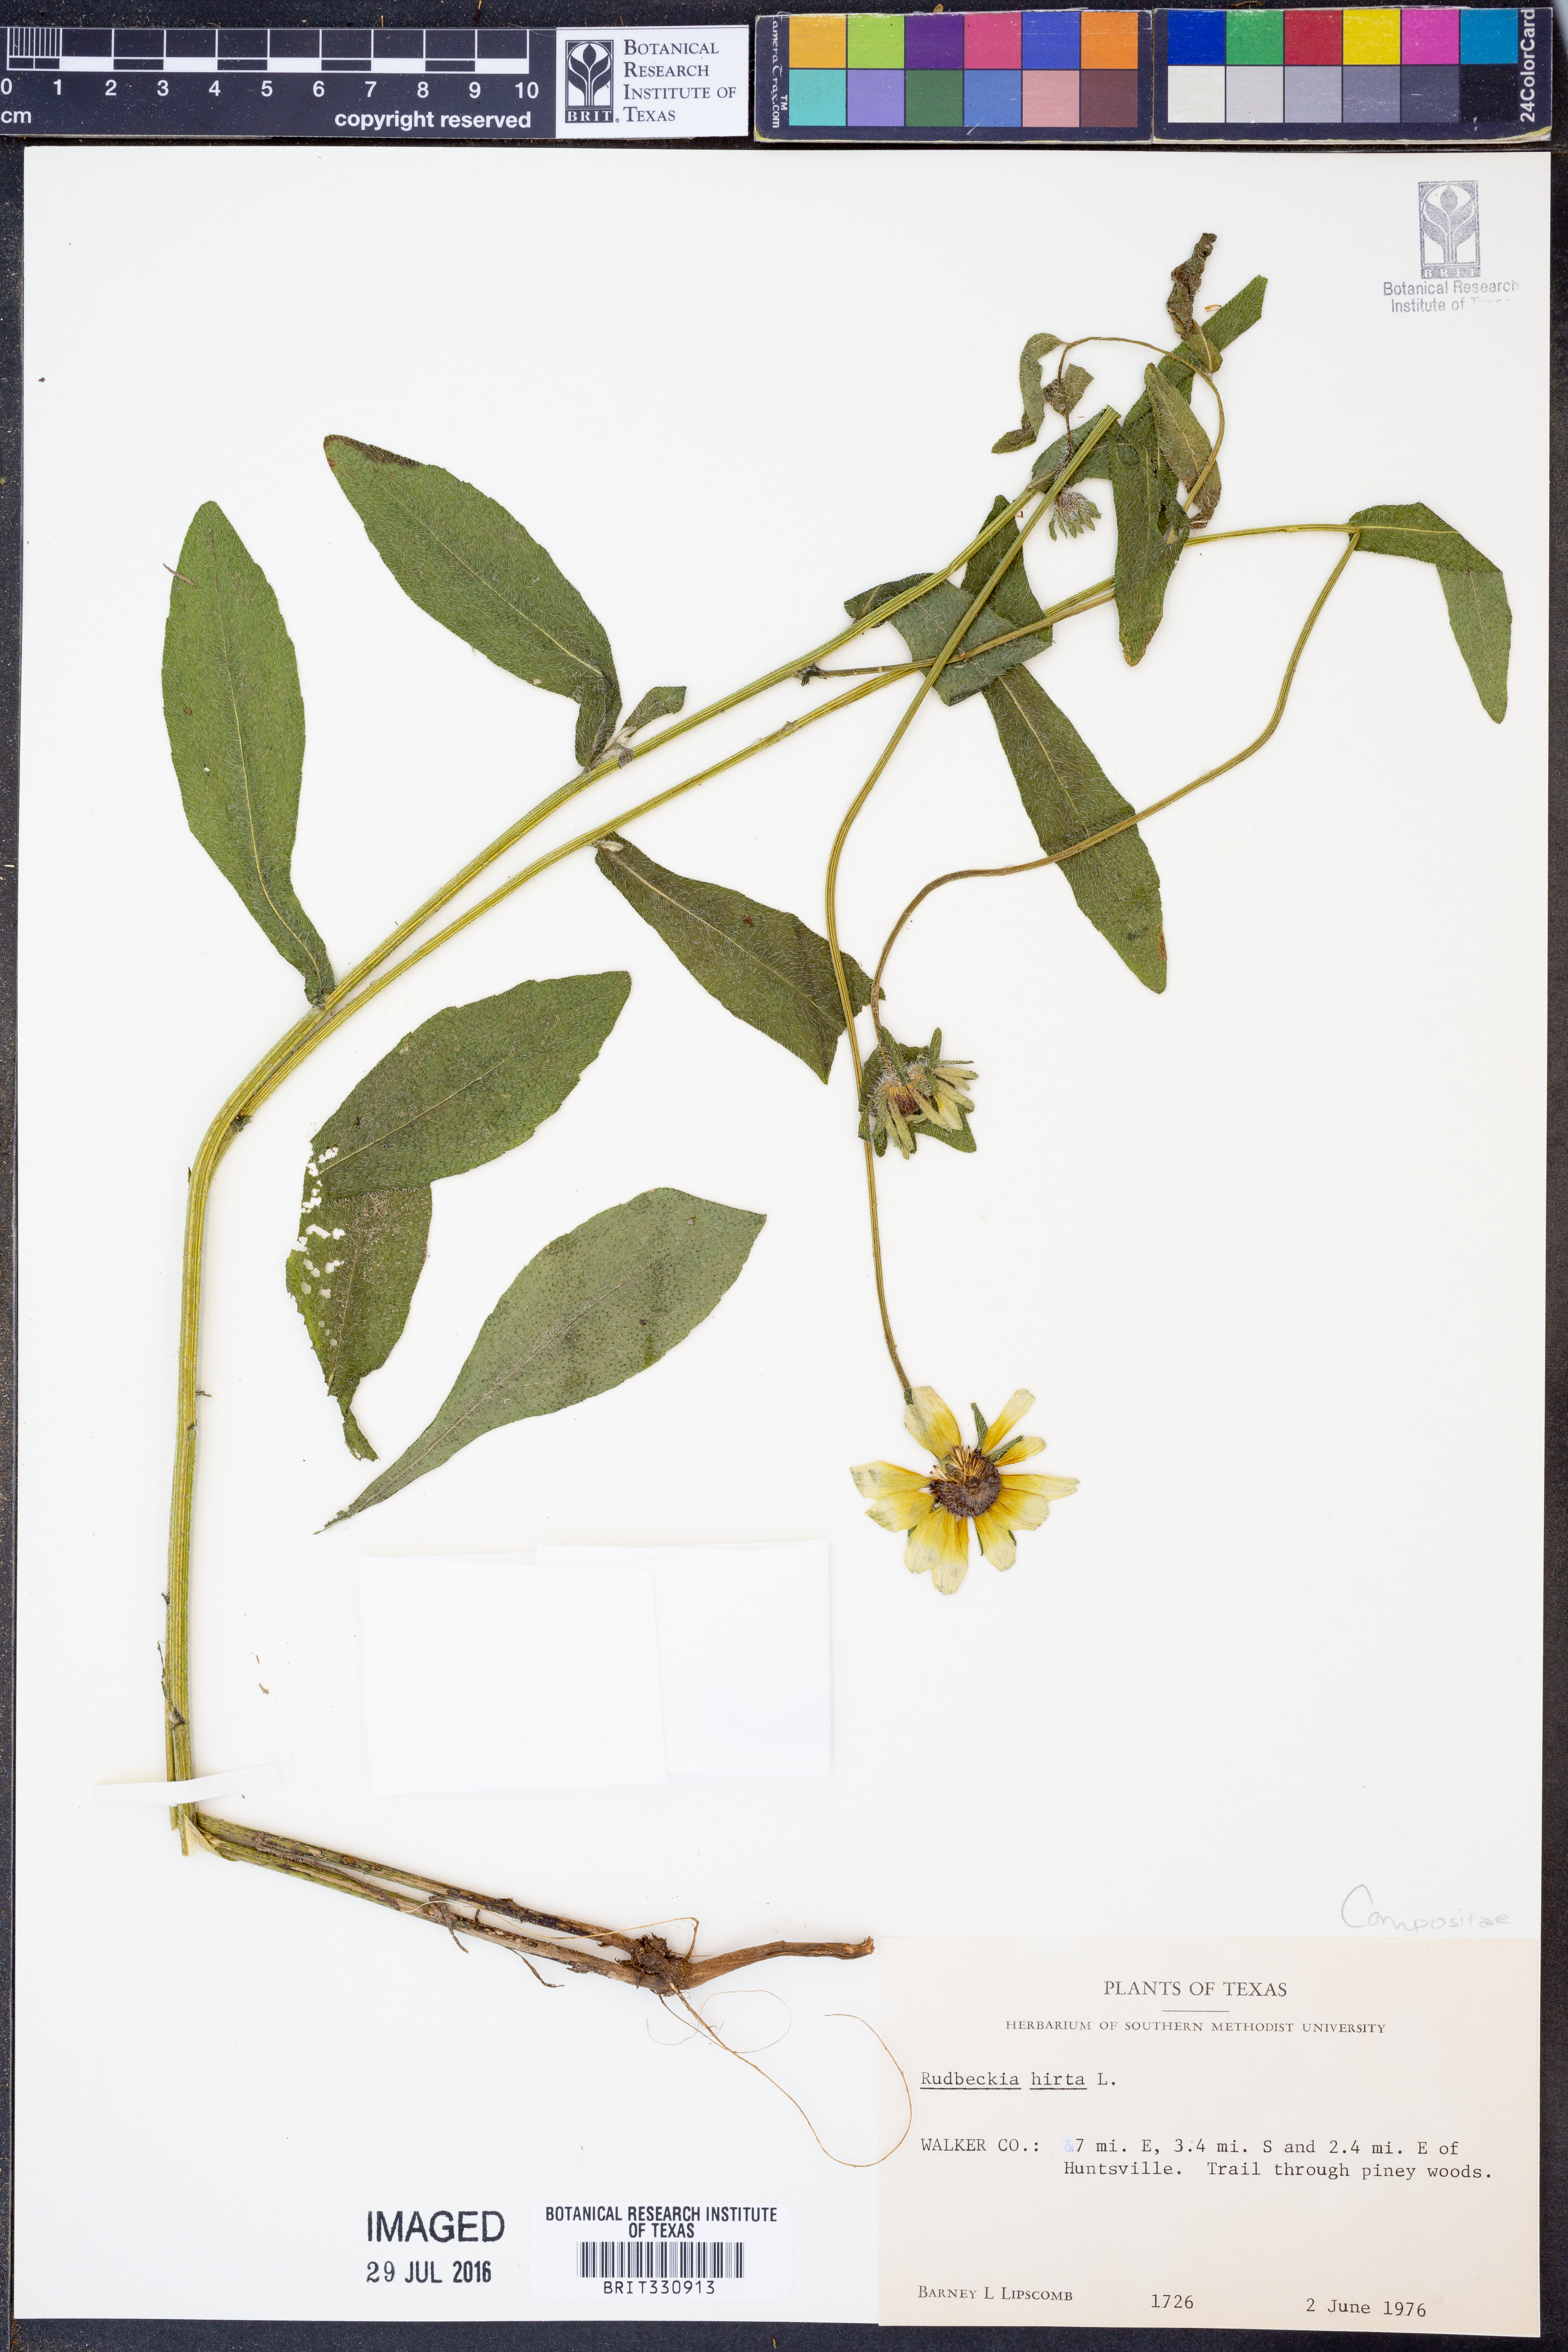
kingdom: Plantae
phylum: Tracheophyta
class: Magnoliopsida
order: Asterales
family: Asteraceae
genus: Rudbeckia
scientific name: Rudbeckia hirta
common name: Black-eyed-susan
